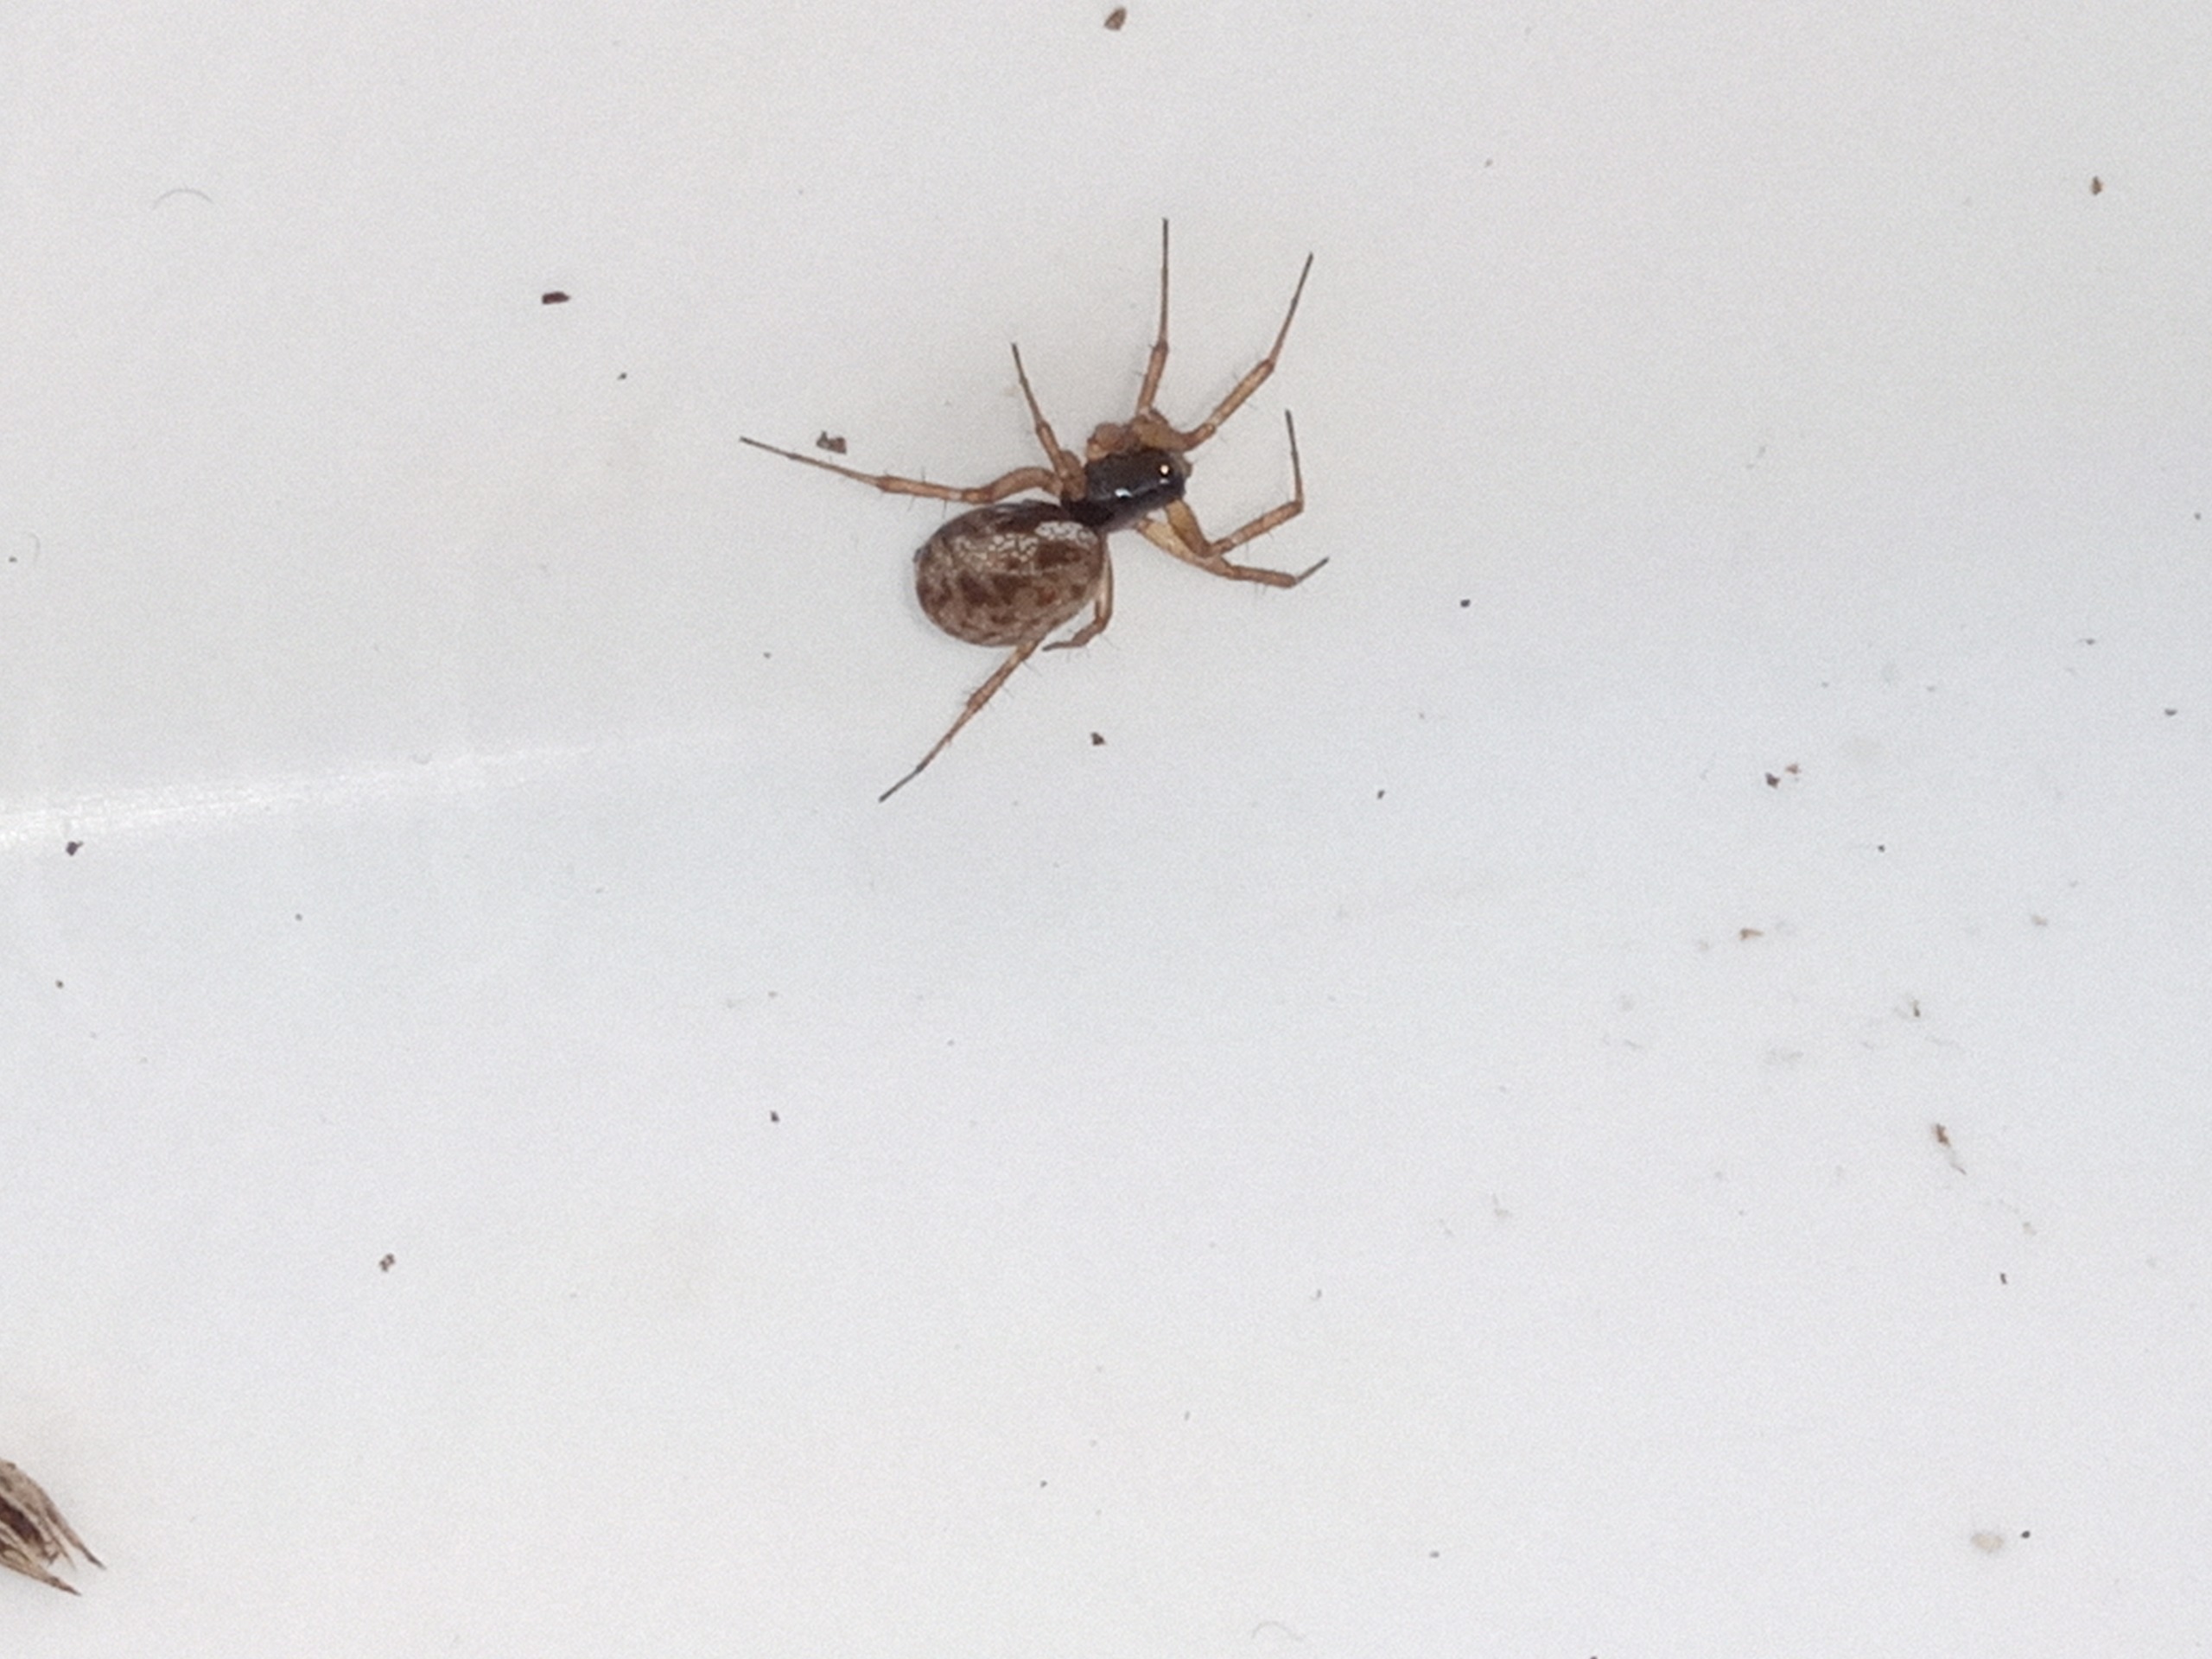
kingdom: Animalia
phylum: Arthropoda
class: Arachnida
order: Araneae
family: Linyphiidae
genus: Neriene
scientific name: Neriene clathrata
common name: Kratbaldakinspinder
